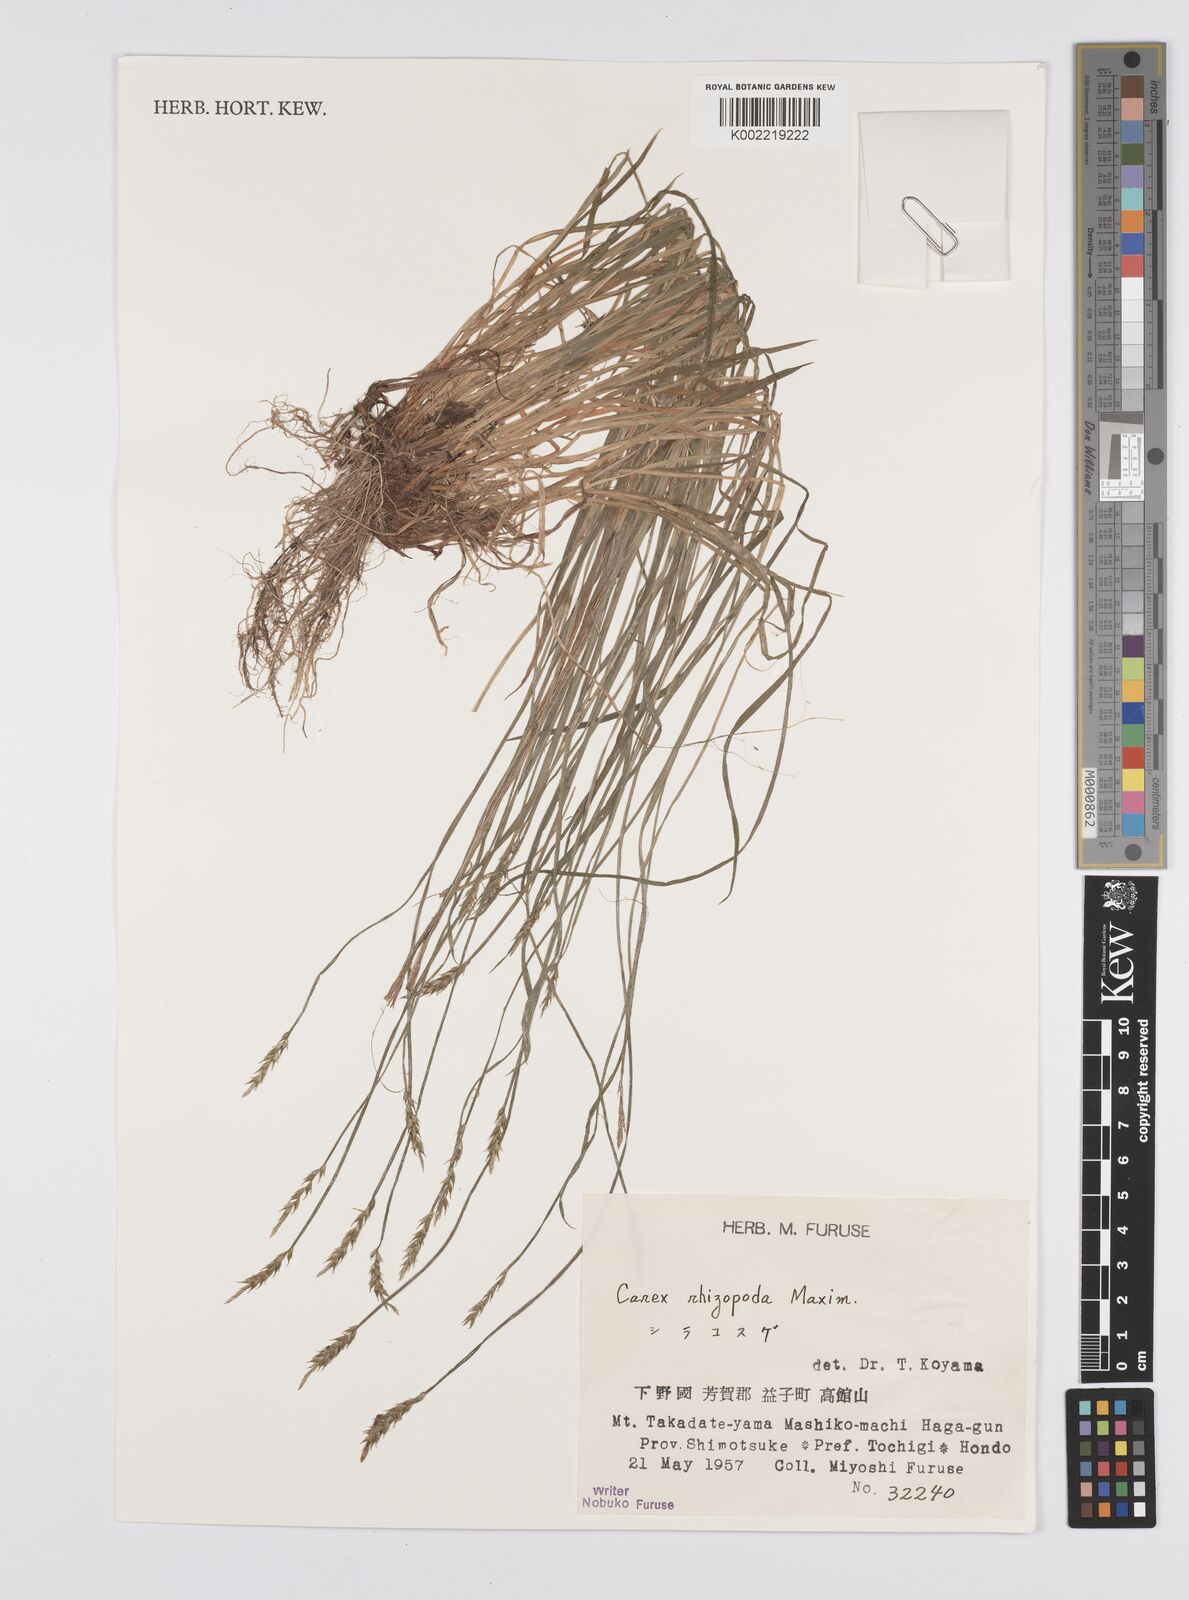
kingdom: Plantae
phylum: Tracheophyta
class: Liliopsida
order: Poales
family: Cyperaceae
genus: Carex
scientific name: Carex rhizopoda
